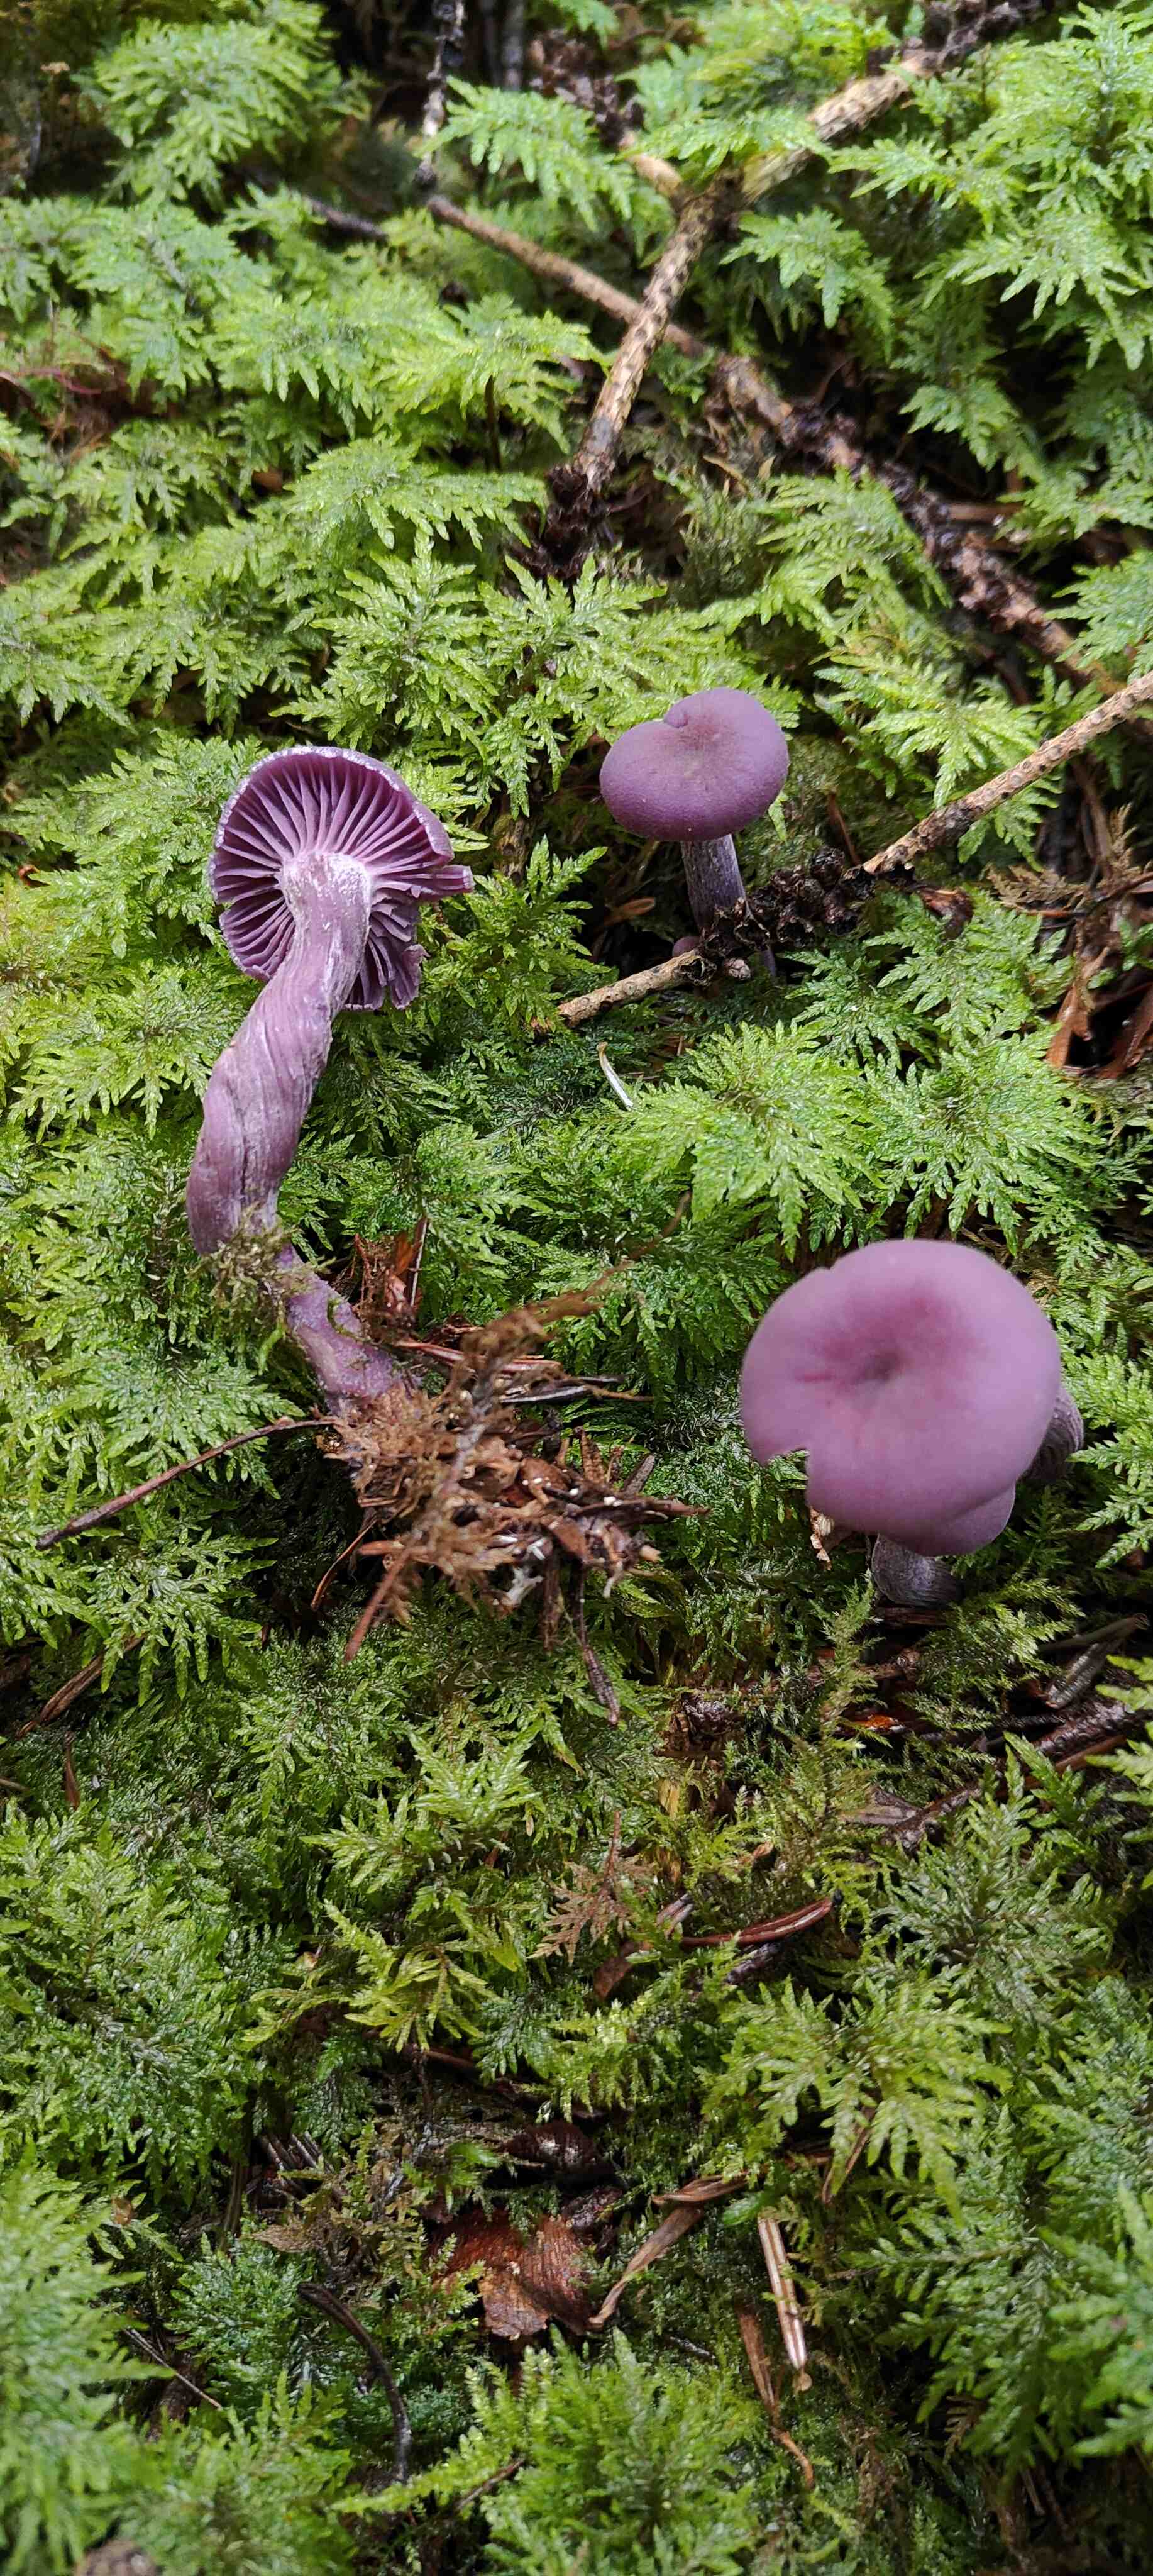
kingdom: Fungi
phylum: Basidiomycota
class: Agaricomycetes
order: Agaricales
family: Hydnangiaceae
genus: Laccaria
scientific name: Laccaria amethystina
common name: violet ametysthat
